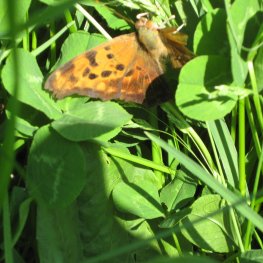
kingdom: Animalia
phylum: Arthropoda
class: Insecta
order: Lepidoptera
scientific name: Lepidoptera
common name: Butterflies
